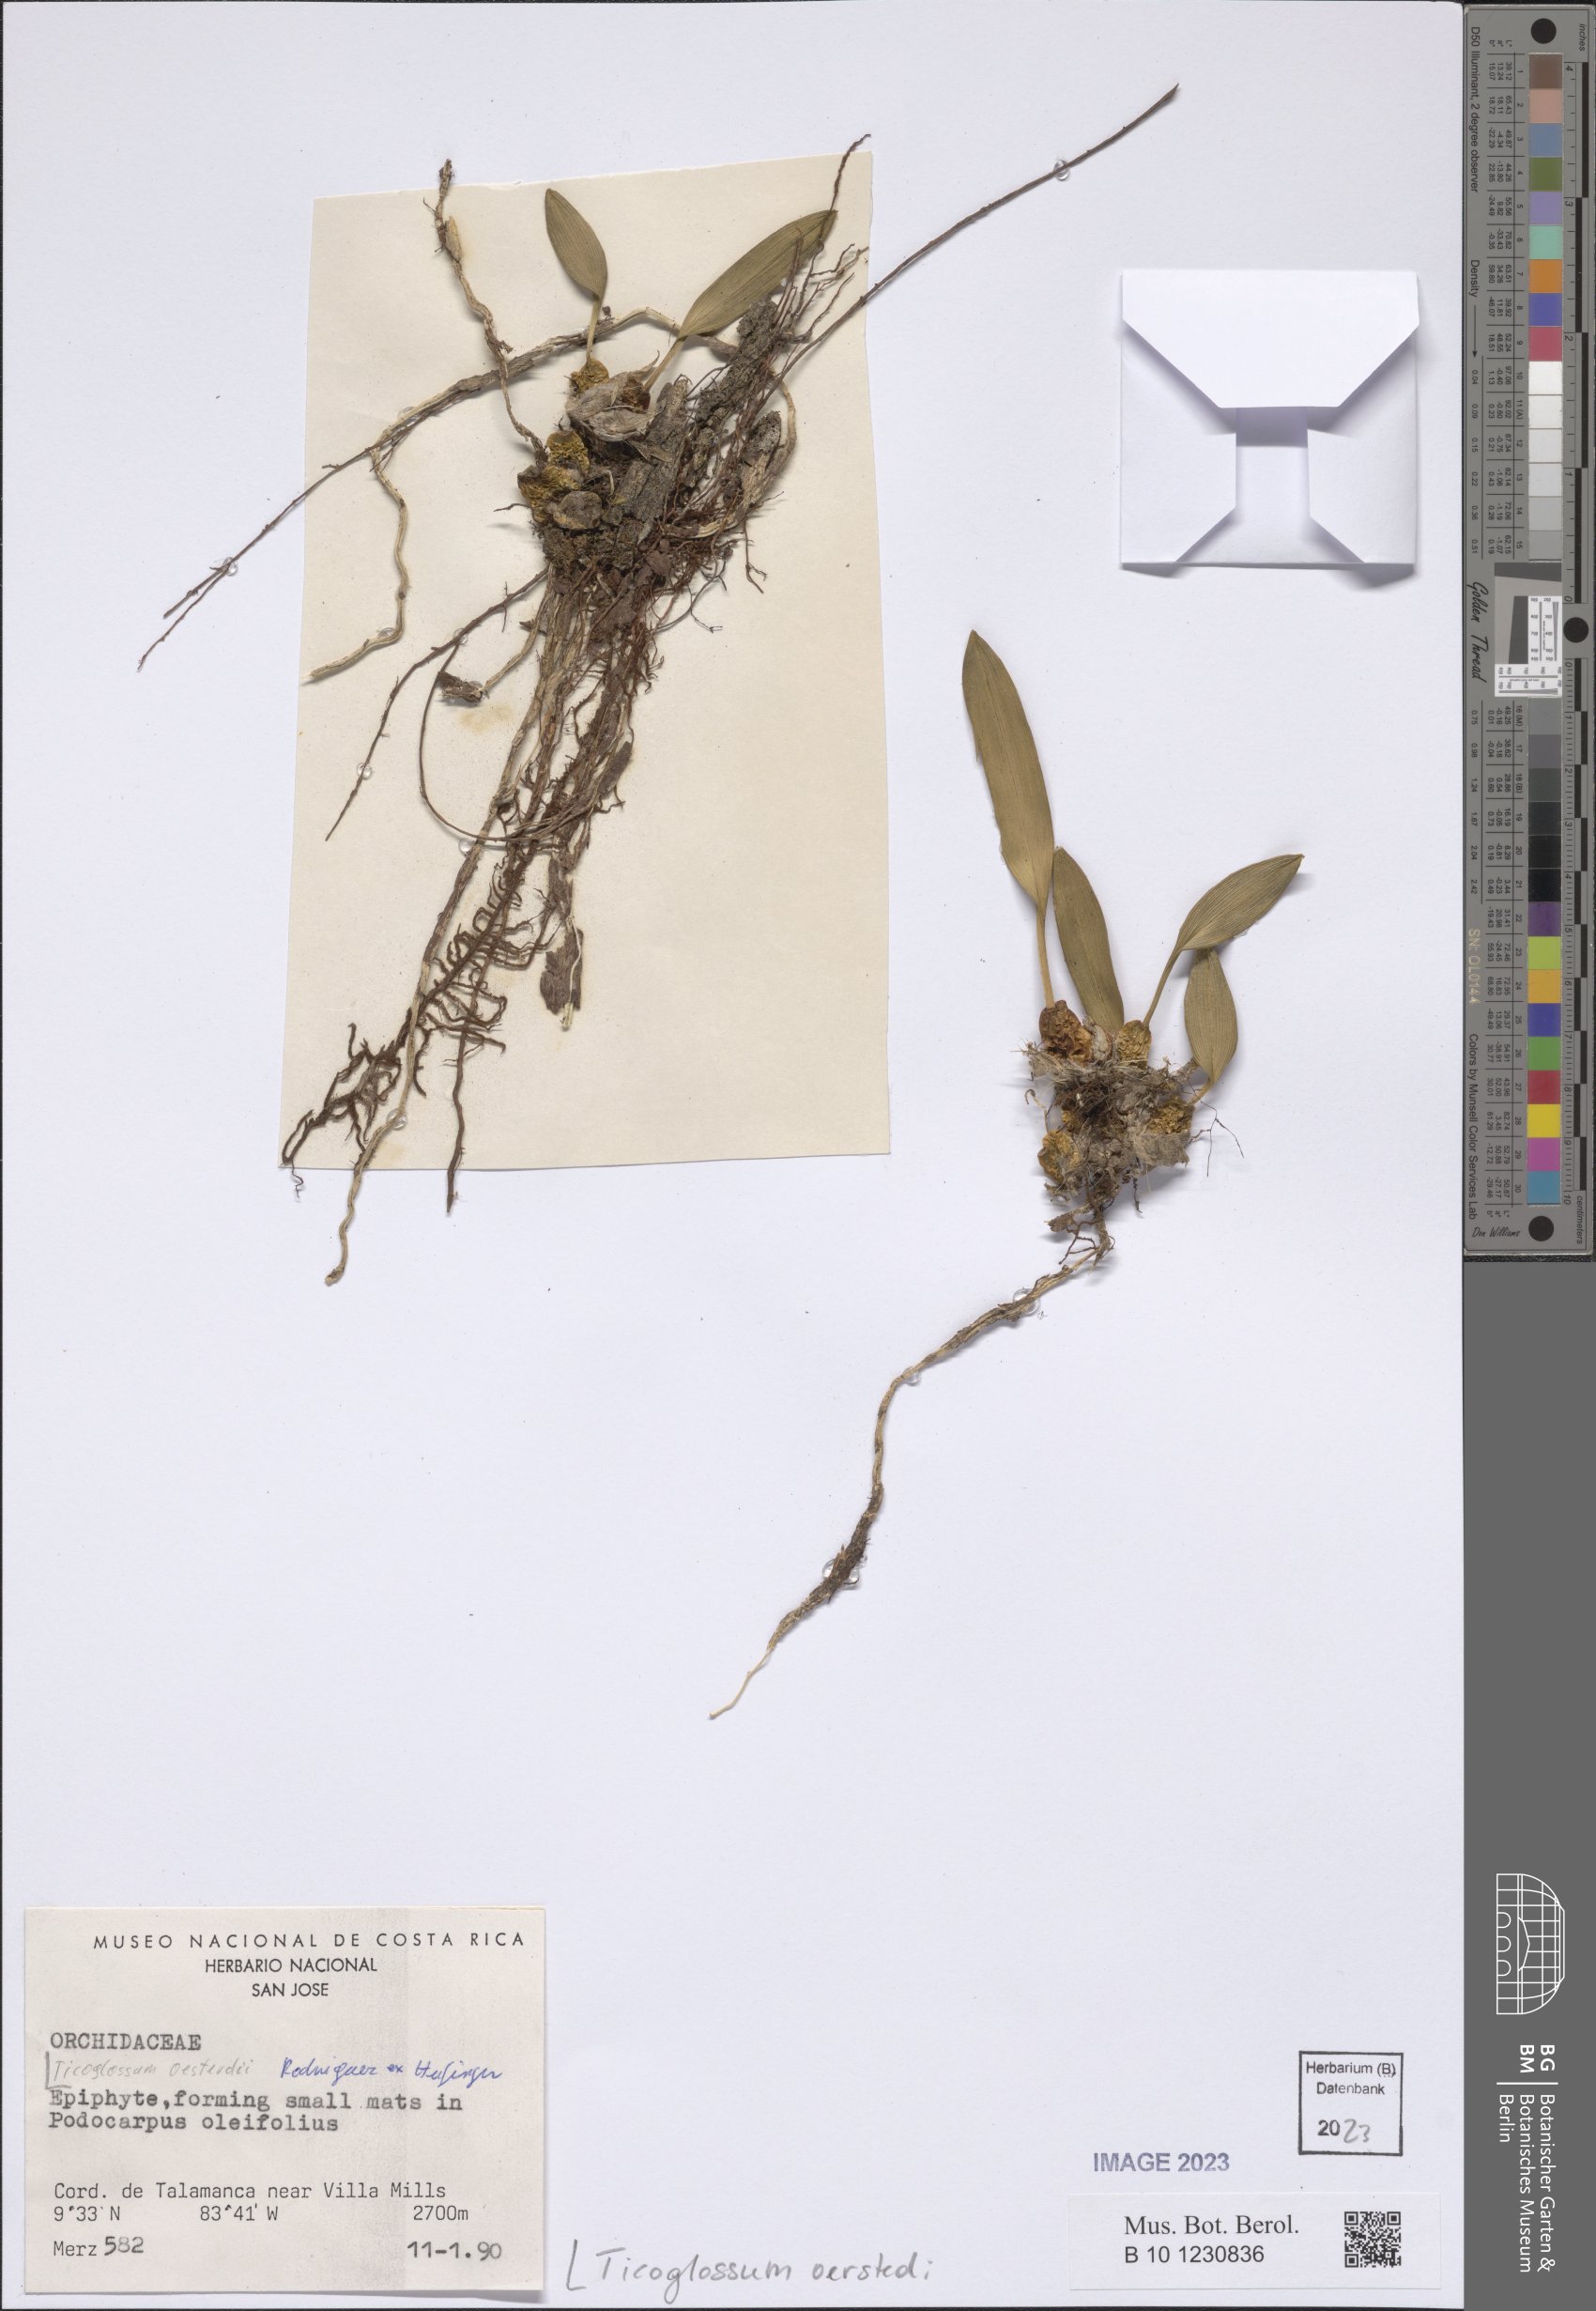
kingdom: Plantae
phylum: Tracheophyta
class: Liliopsida
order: Asparagales
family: Orchidaceae
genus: Rossioglossum
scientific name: Rossioglossum oerstedii
